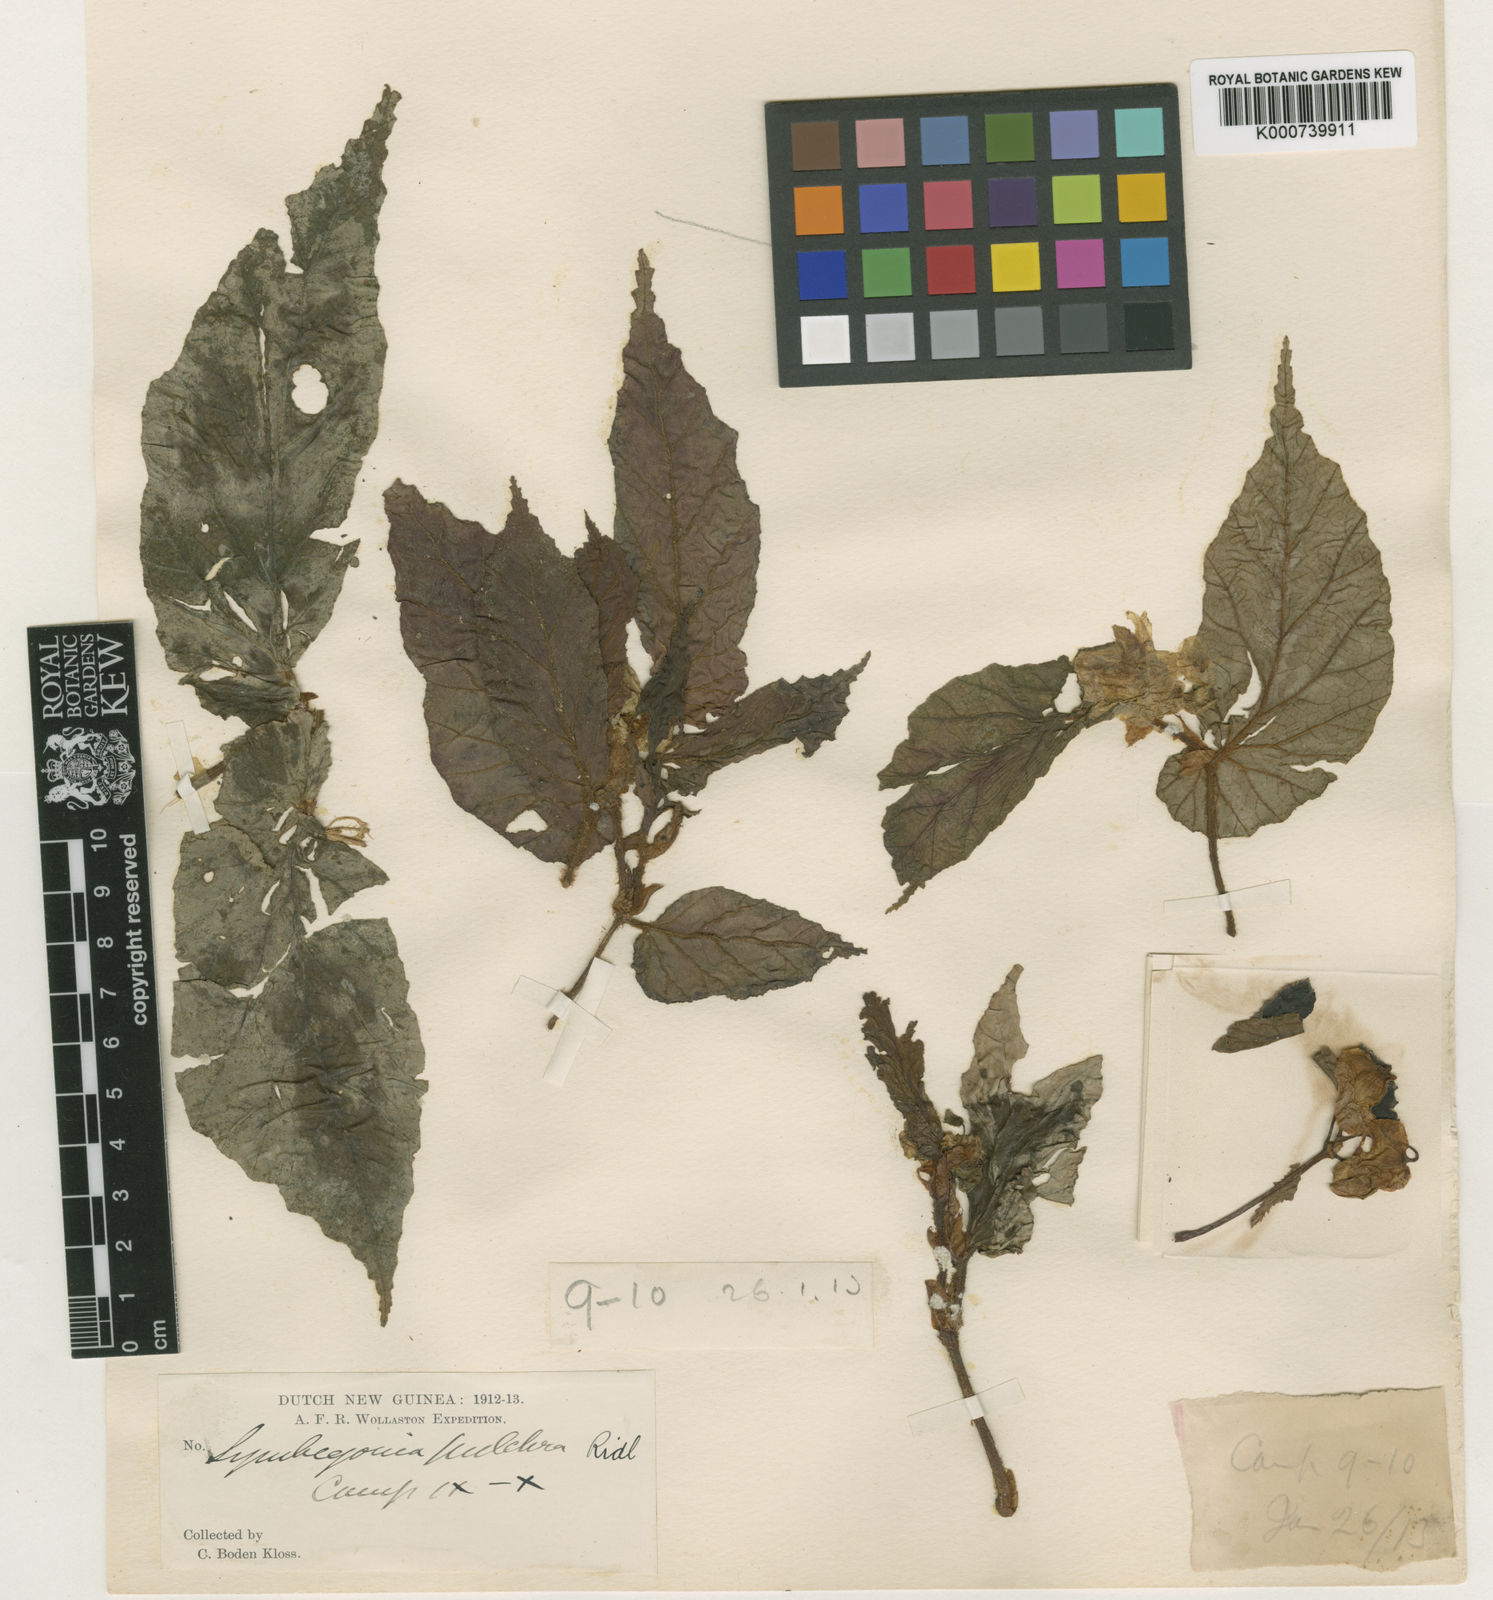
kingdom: Plantae
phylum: Tracheophyta
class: Magnoliopsida
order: Cucurbitales
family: Begoniaceae
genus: Begonia
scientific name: Begonia pulchra
